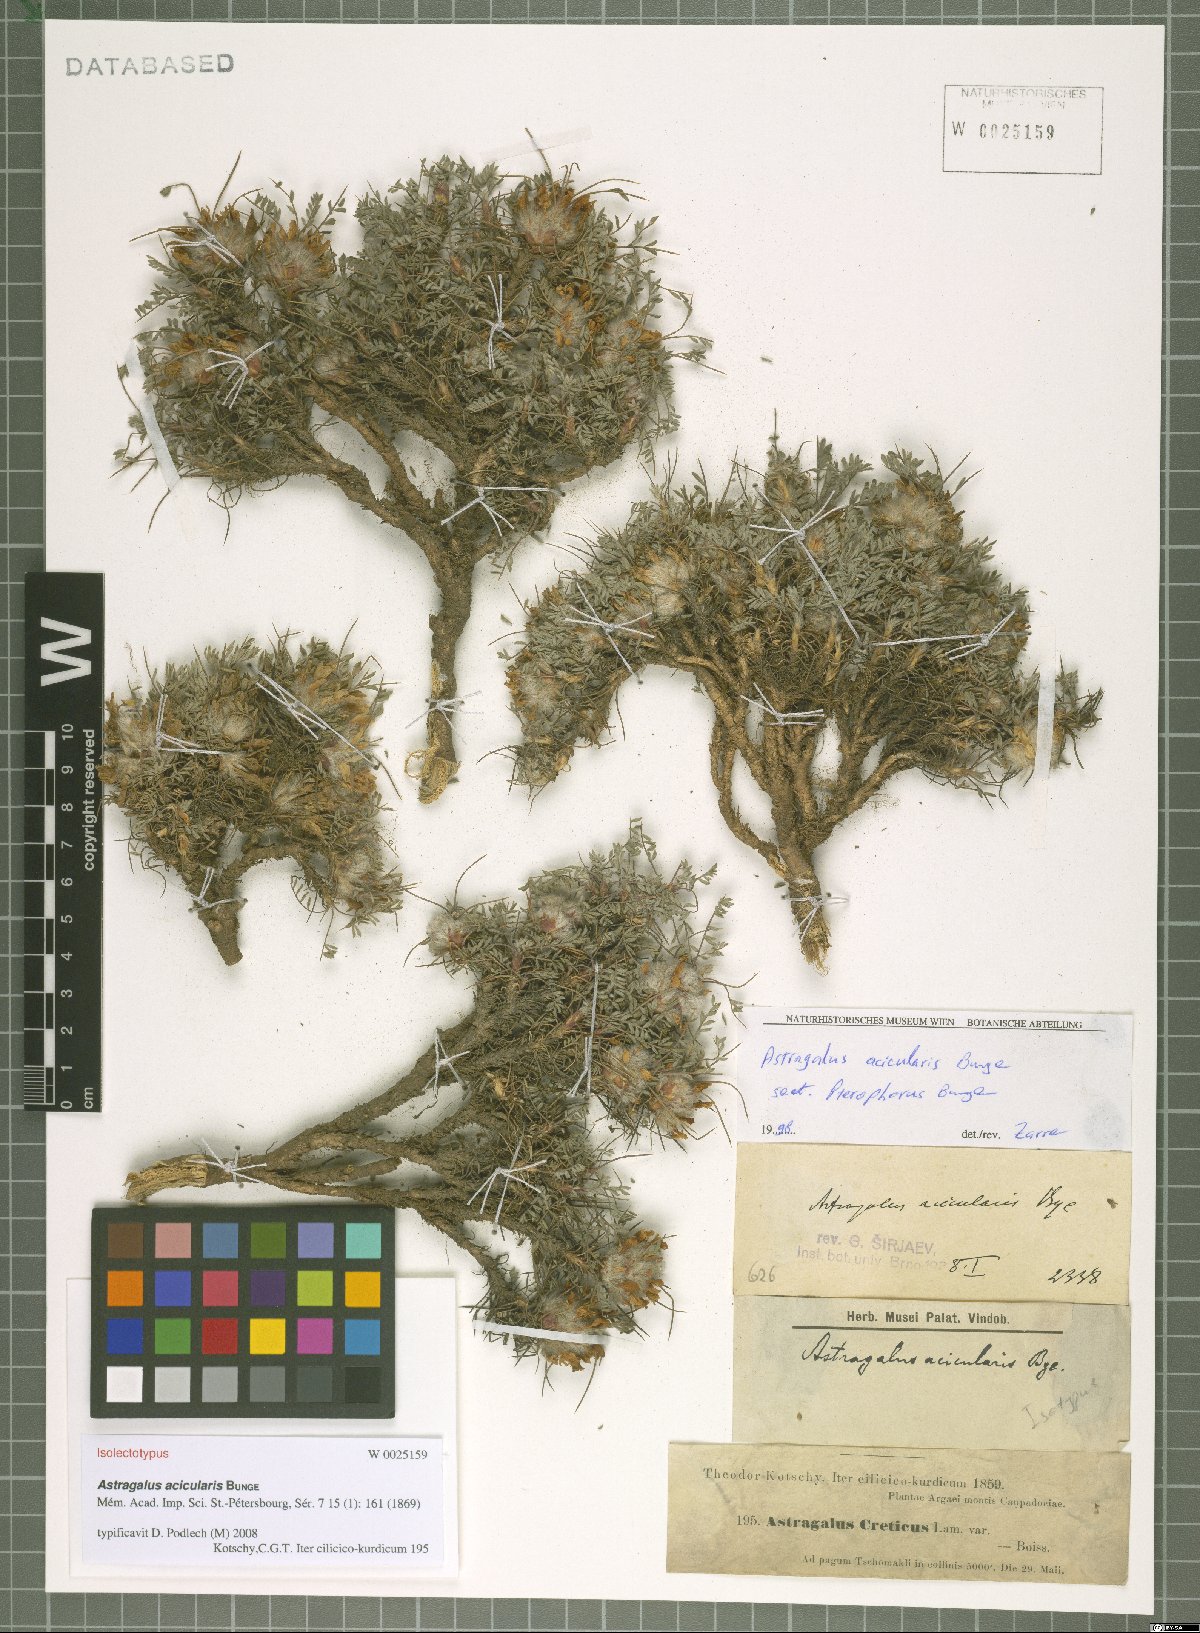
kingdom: Plantae
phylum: Tracheophyta
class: Magnoliopsida
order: Fabales
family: Fabaceae
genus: Astragalus
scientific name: Astragalus acicularis
